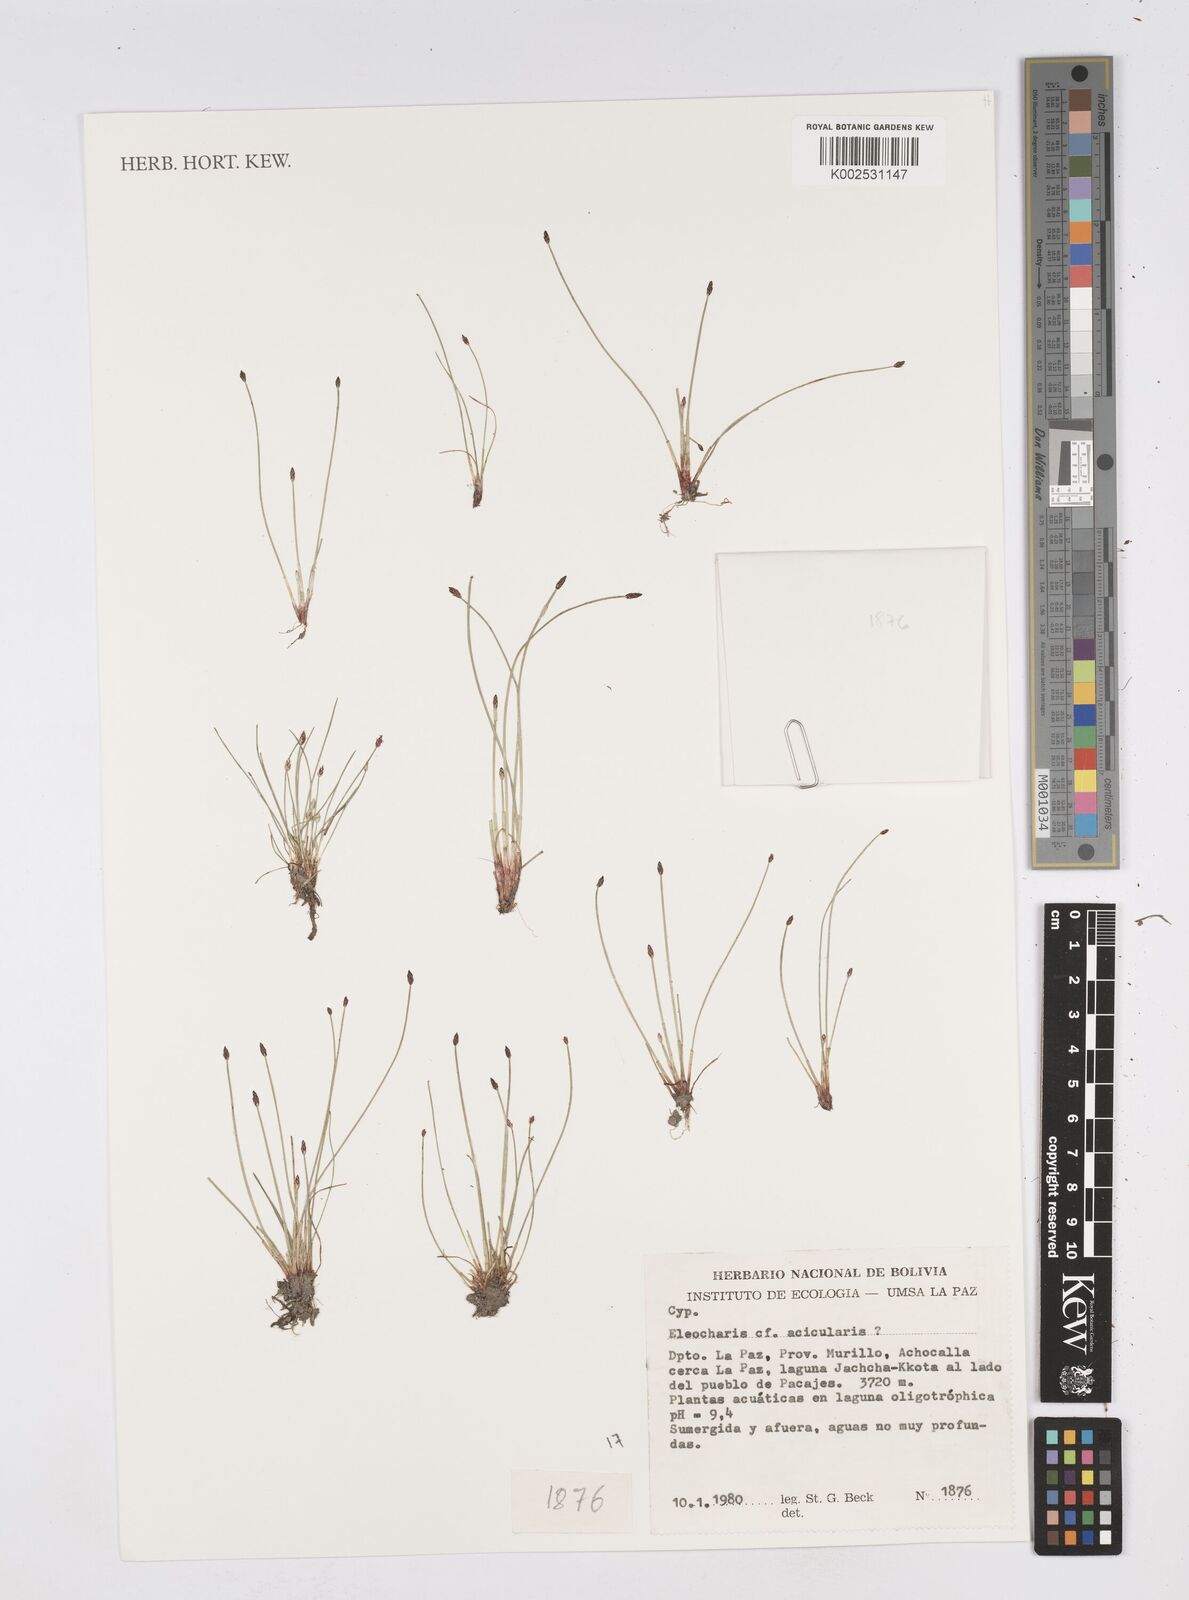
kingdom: Plantae
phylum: Tracheophyta
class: Liliopsida
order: Poales
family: Cyperaceae
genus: Eleocharis
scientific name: Eleocharis acicularis
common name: Needle spike-rush
